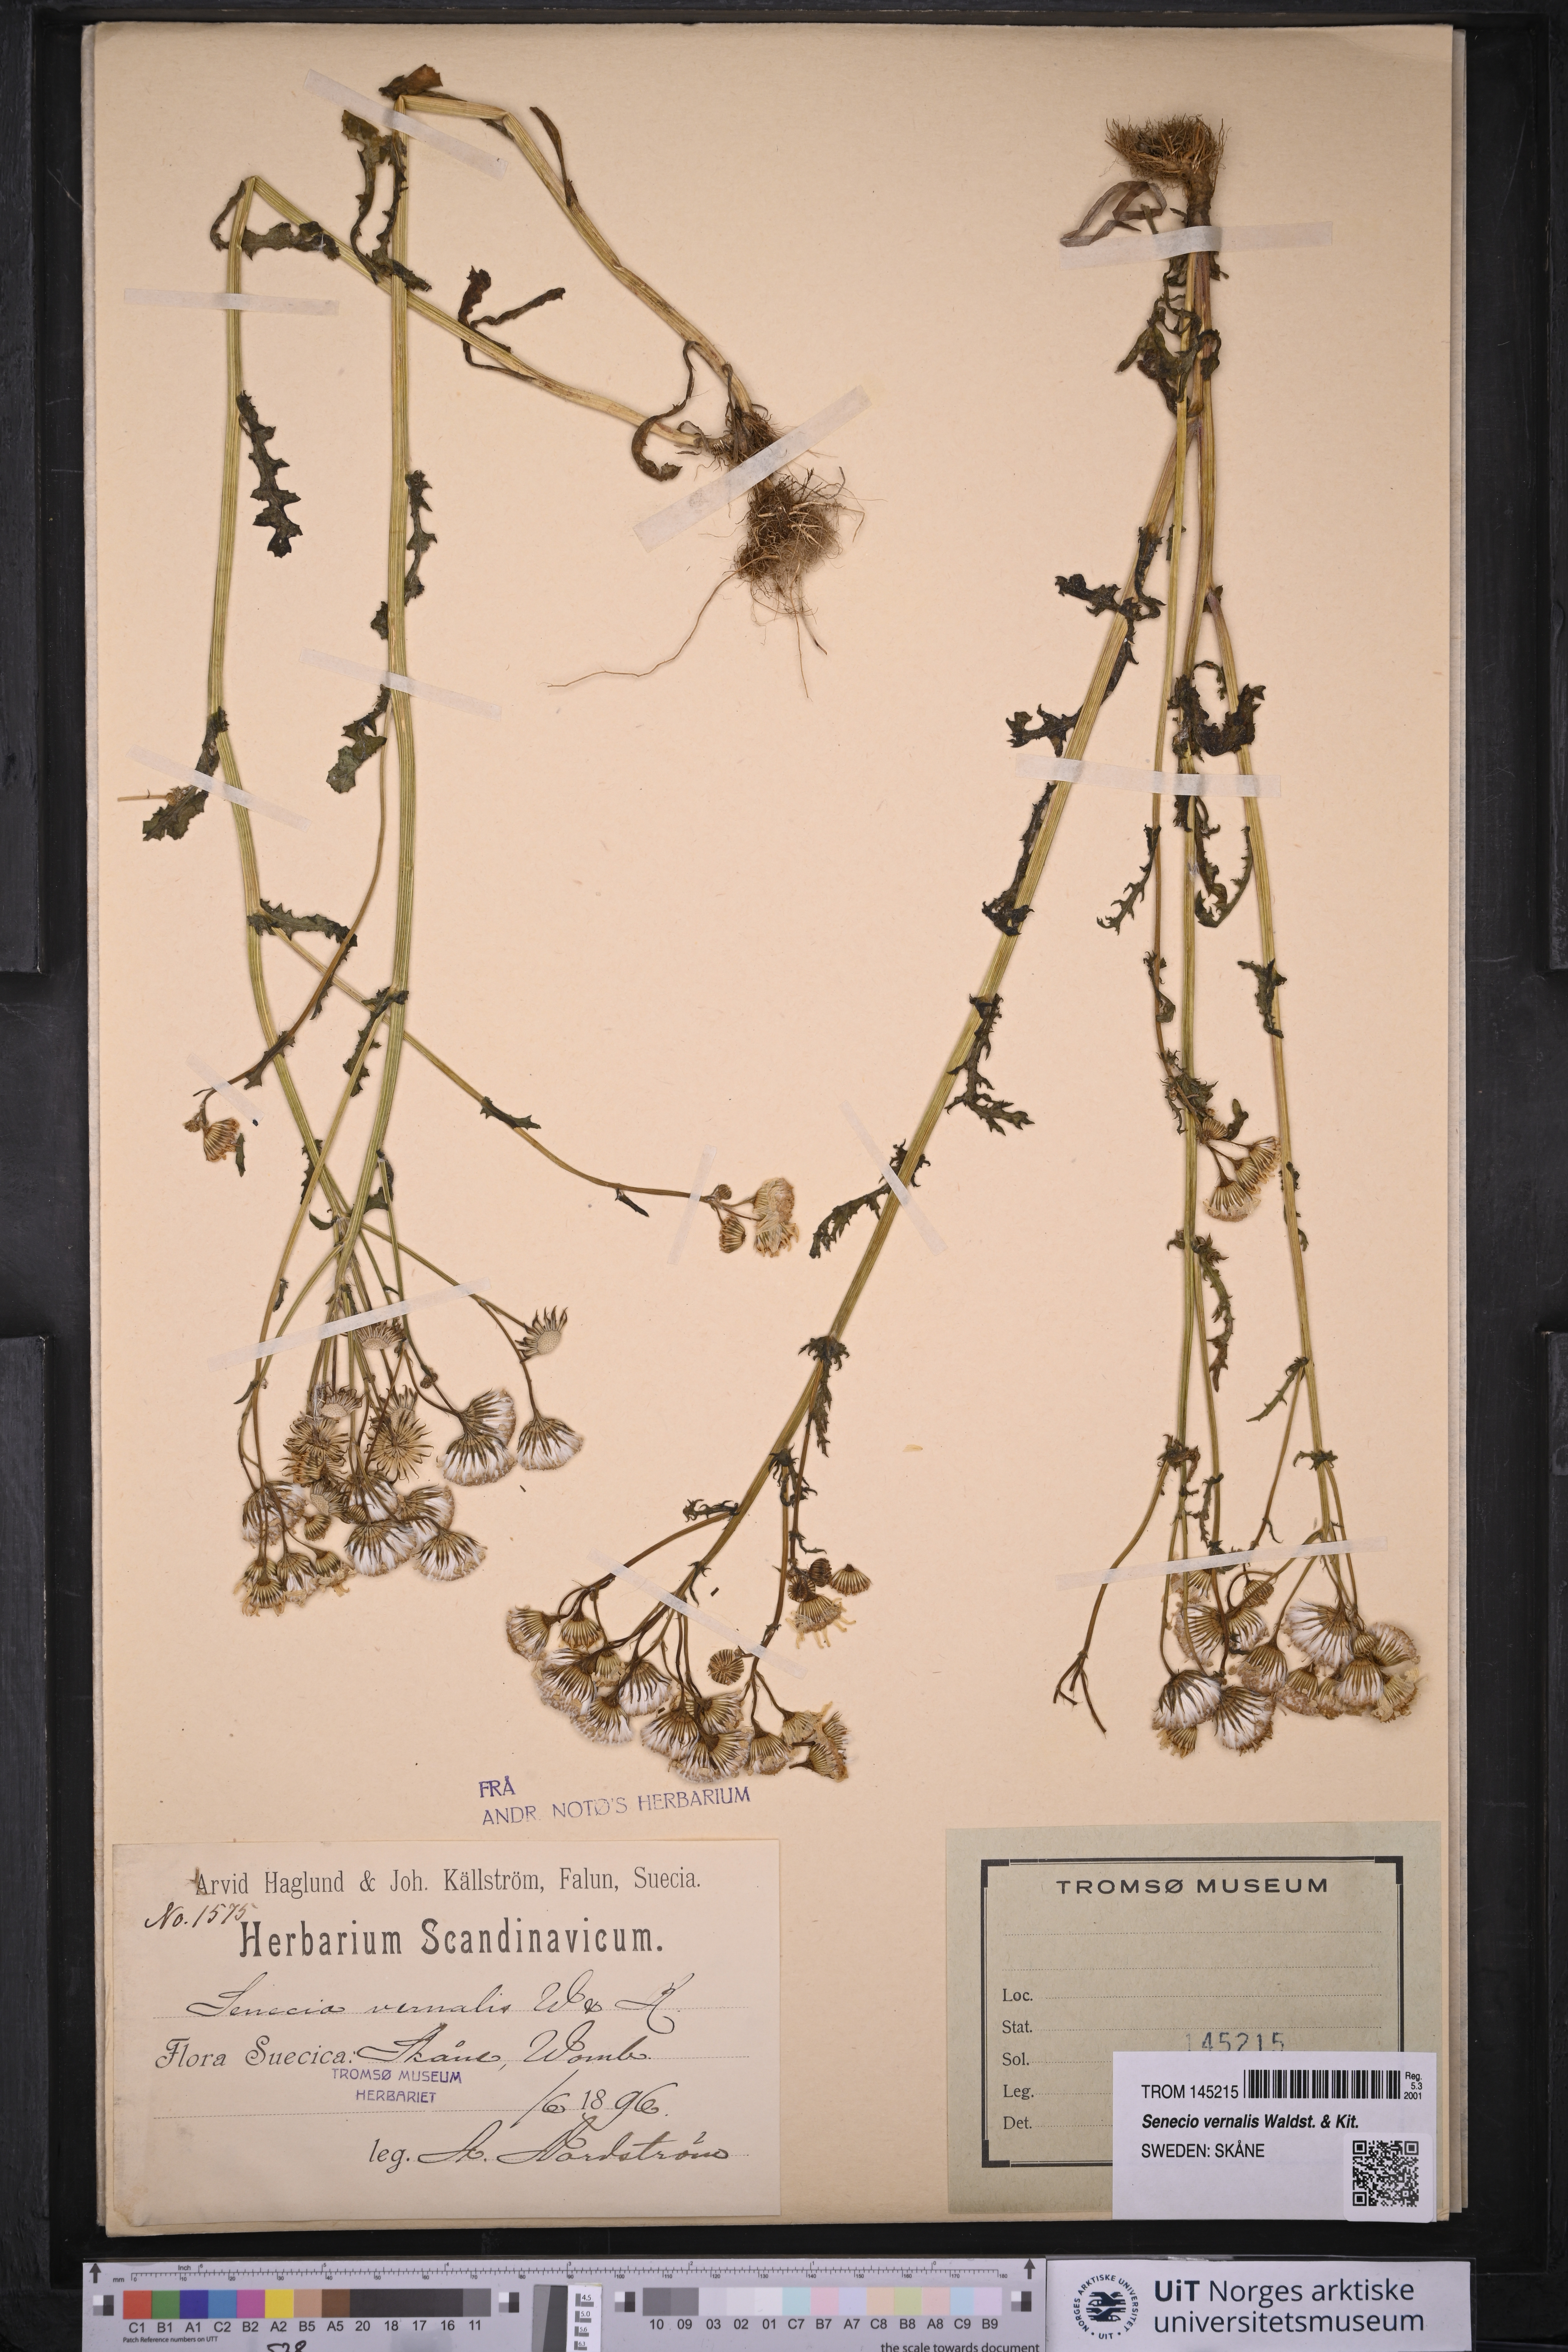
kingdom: Plantae
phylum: Tracheophyta
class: Magnoliopsida
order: Asterales
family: Asteraceae
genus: Senecio
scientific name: Senecio vernalis
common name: Eastern groundsel
